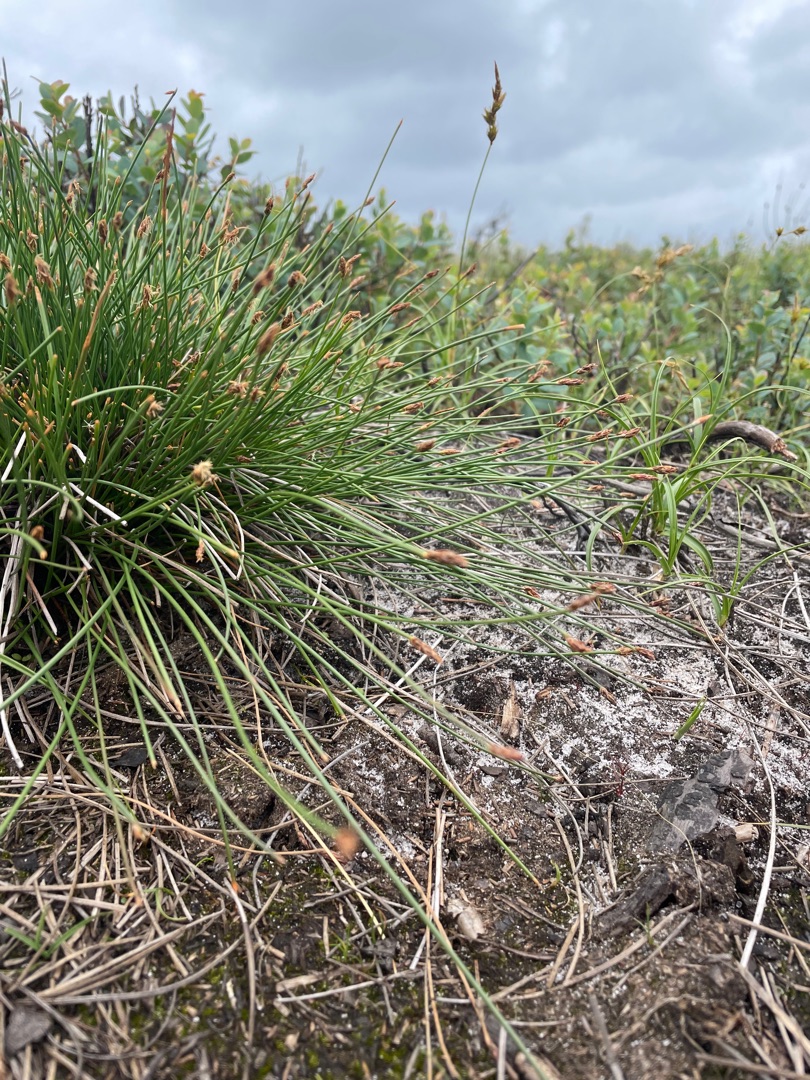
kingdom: Plantae
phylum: Tracheophyta
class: Liliopsida
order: Poales
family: Cyperaceae
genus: Eleocharis
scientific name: Eleocharis multicaulis
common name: Mangestænglet sumpstrå
